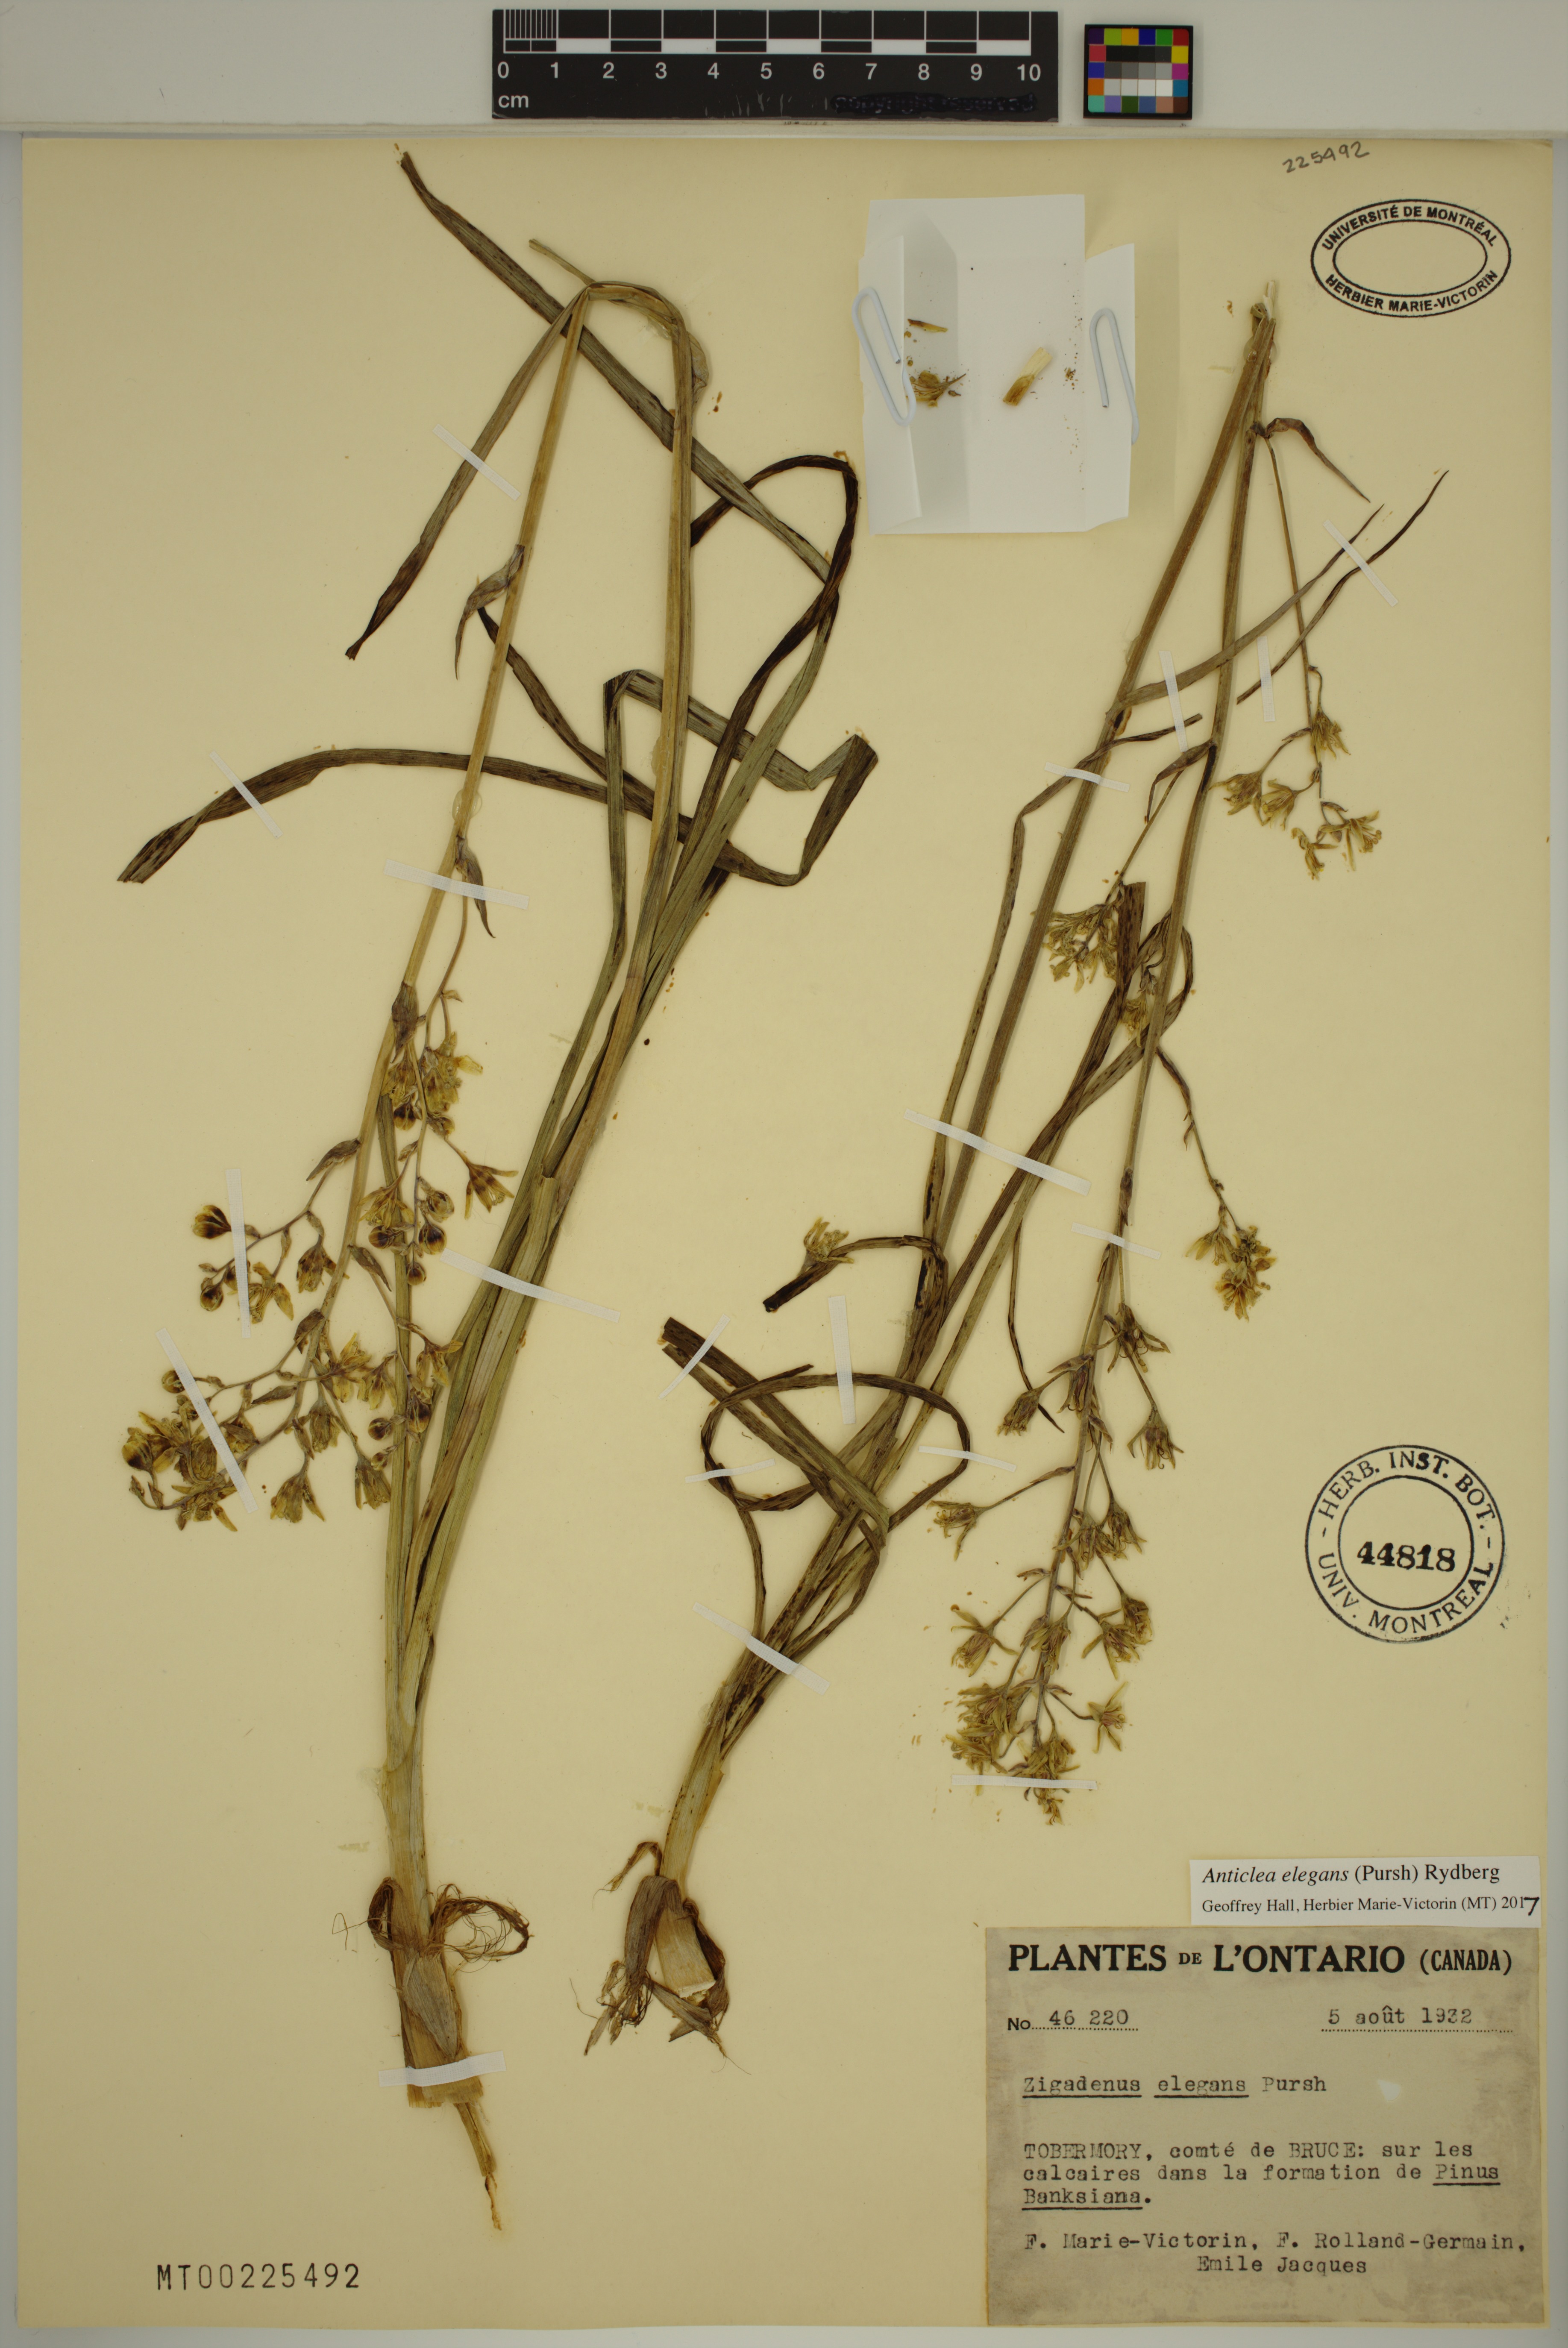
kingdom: Plantae
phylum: Tracheophyta
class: Liliopsida
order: Liliales
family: Melanthiaceae
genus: Anticlea
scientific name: Anticlea elegans
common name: Mountain death camas
